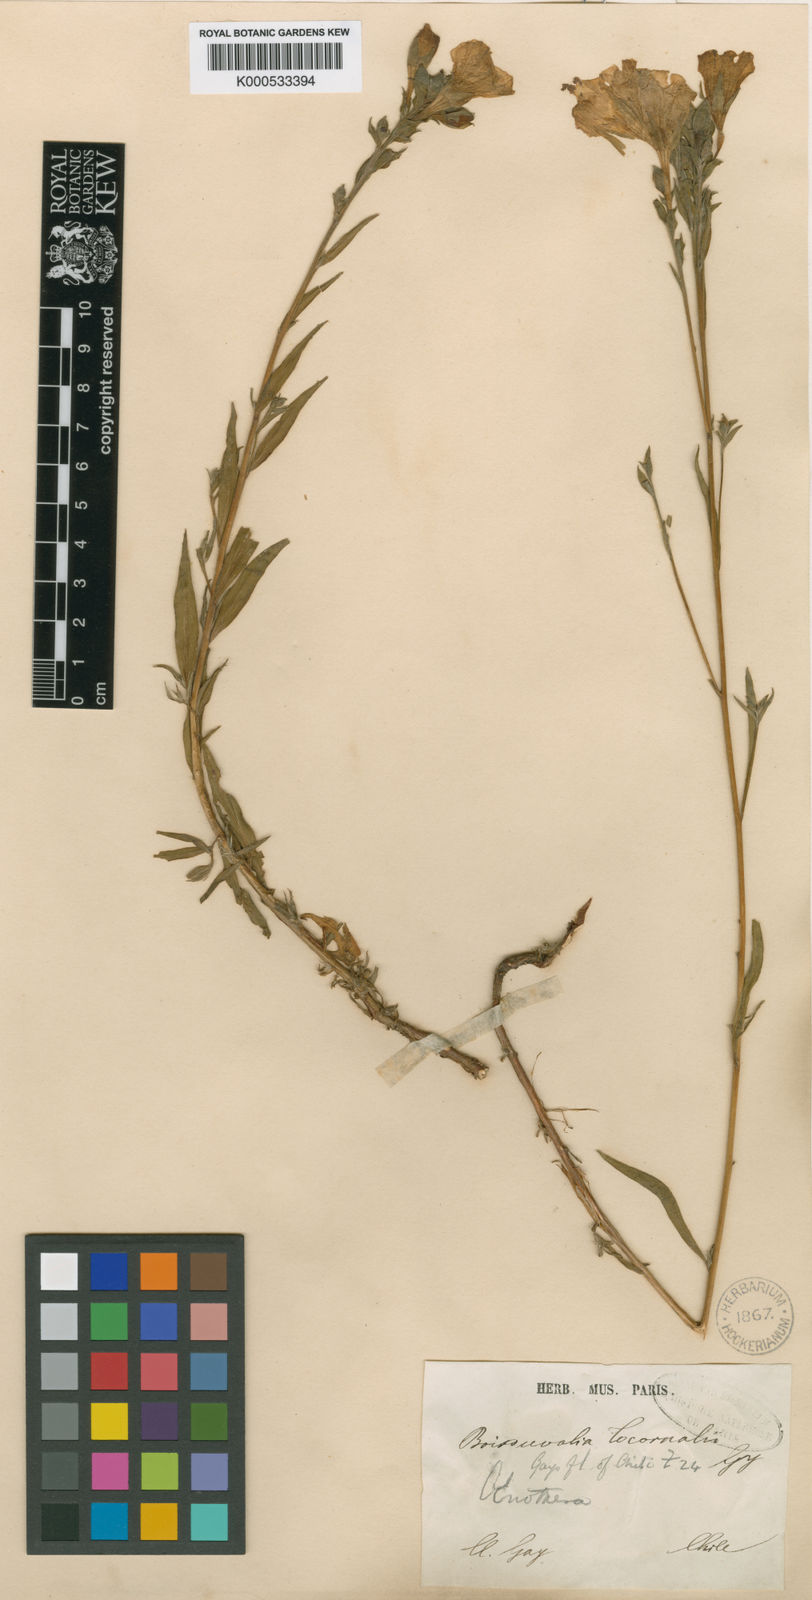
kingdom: Plantae
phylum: Tracheophyta
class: Magnoliopsida
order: Myrtales
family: Onagraceae
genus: Epilobium
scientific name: Epilobium subdentatum
